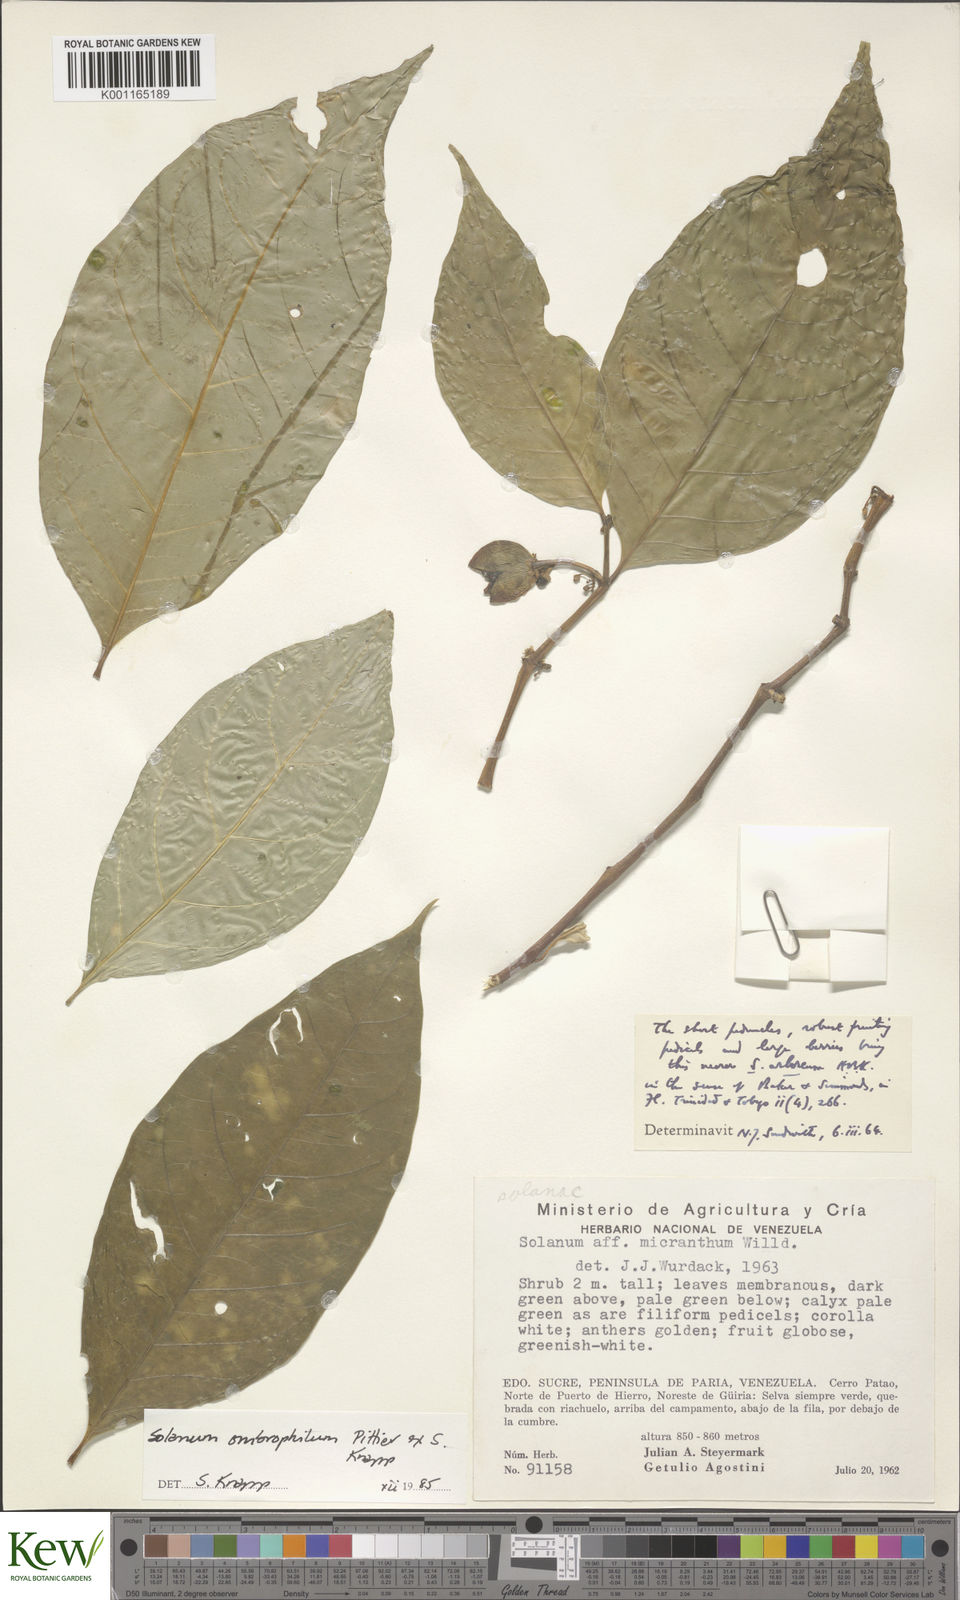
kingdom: Plantae
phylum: Tracheophyta
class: Magnoliopsida
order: Solanales
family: Solanaceae
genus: Solanum
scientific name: Solanum ombrophilum
